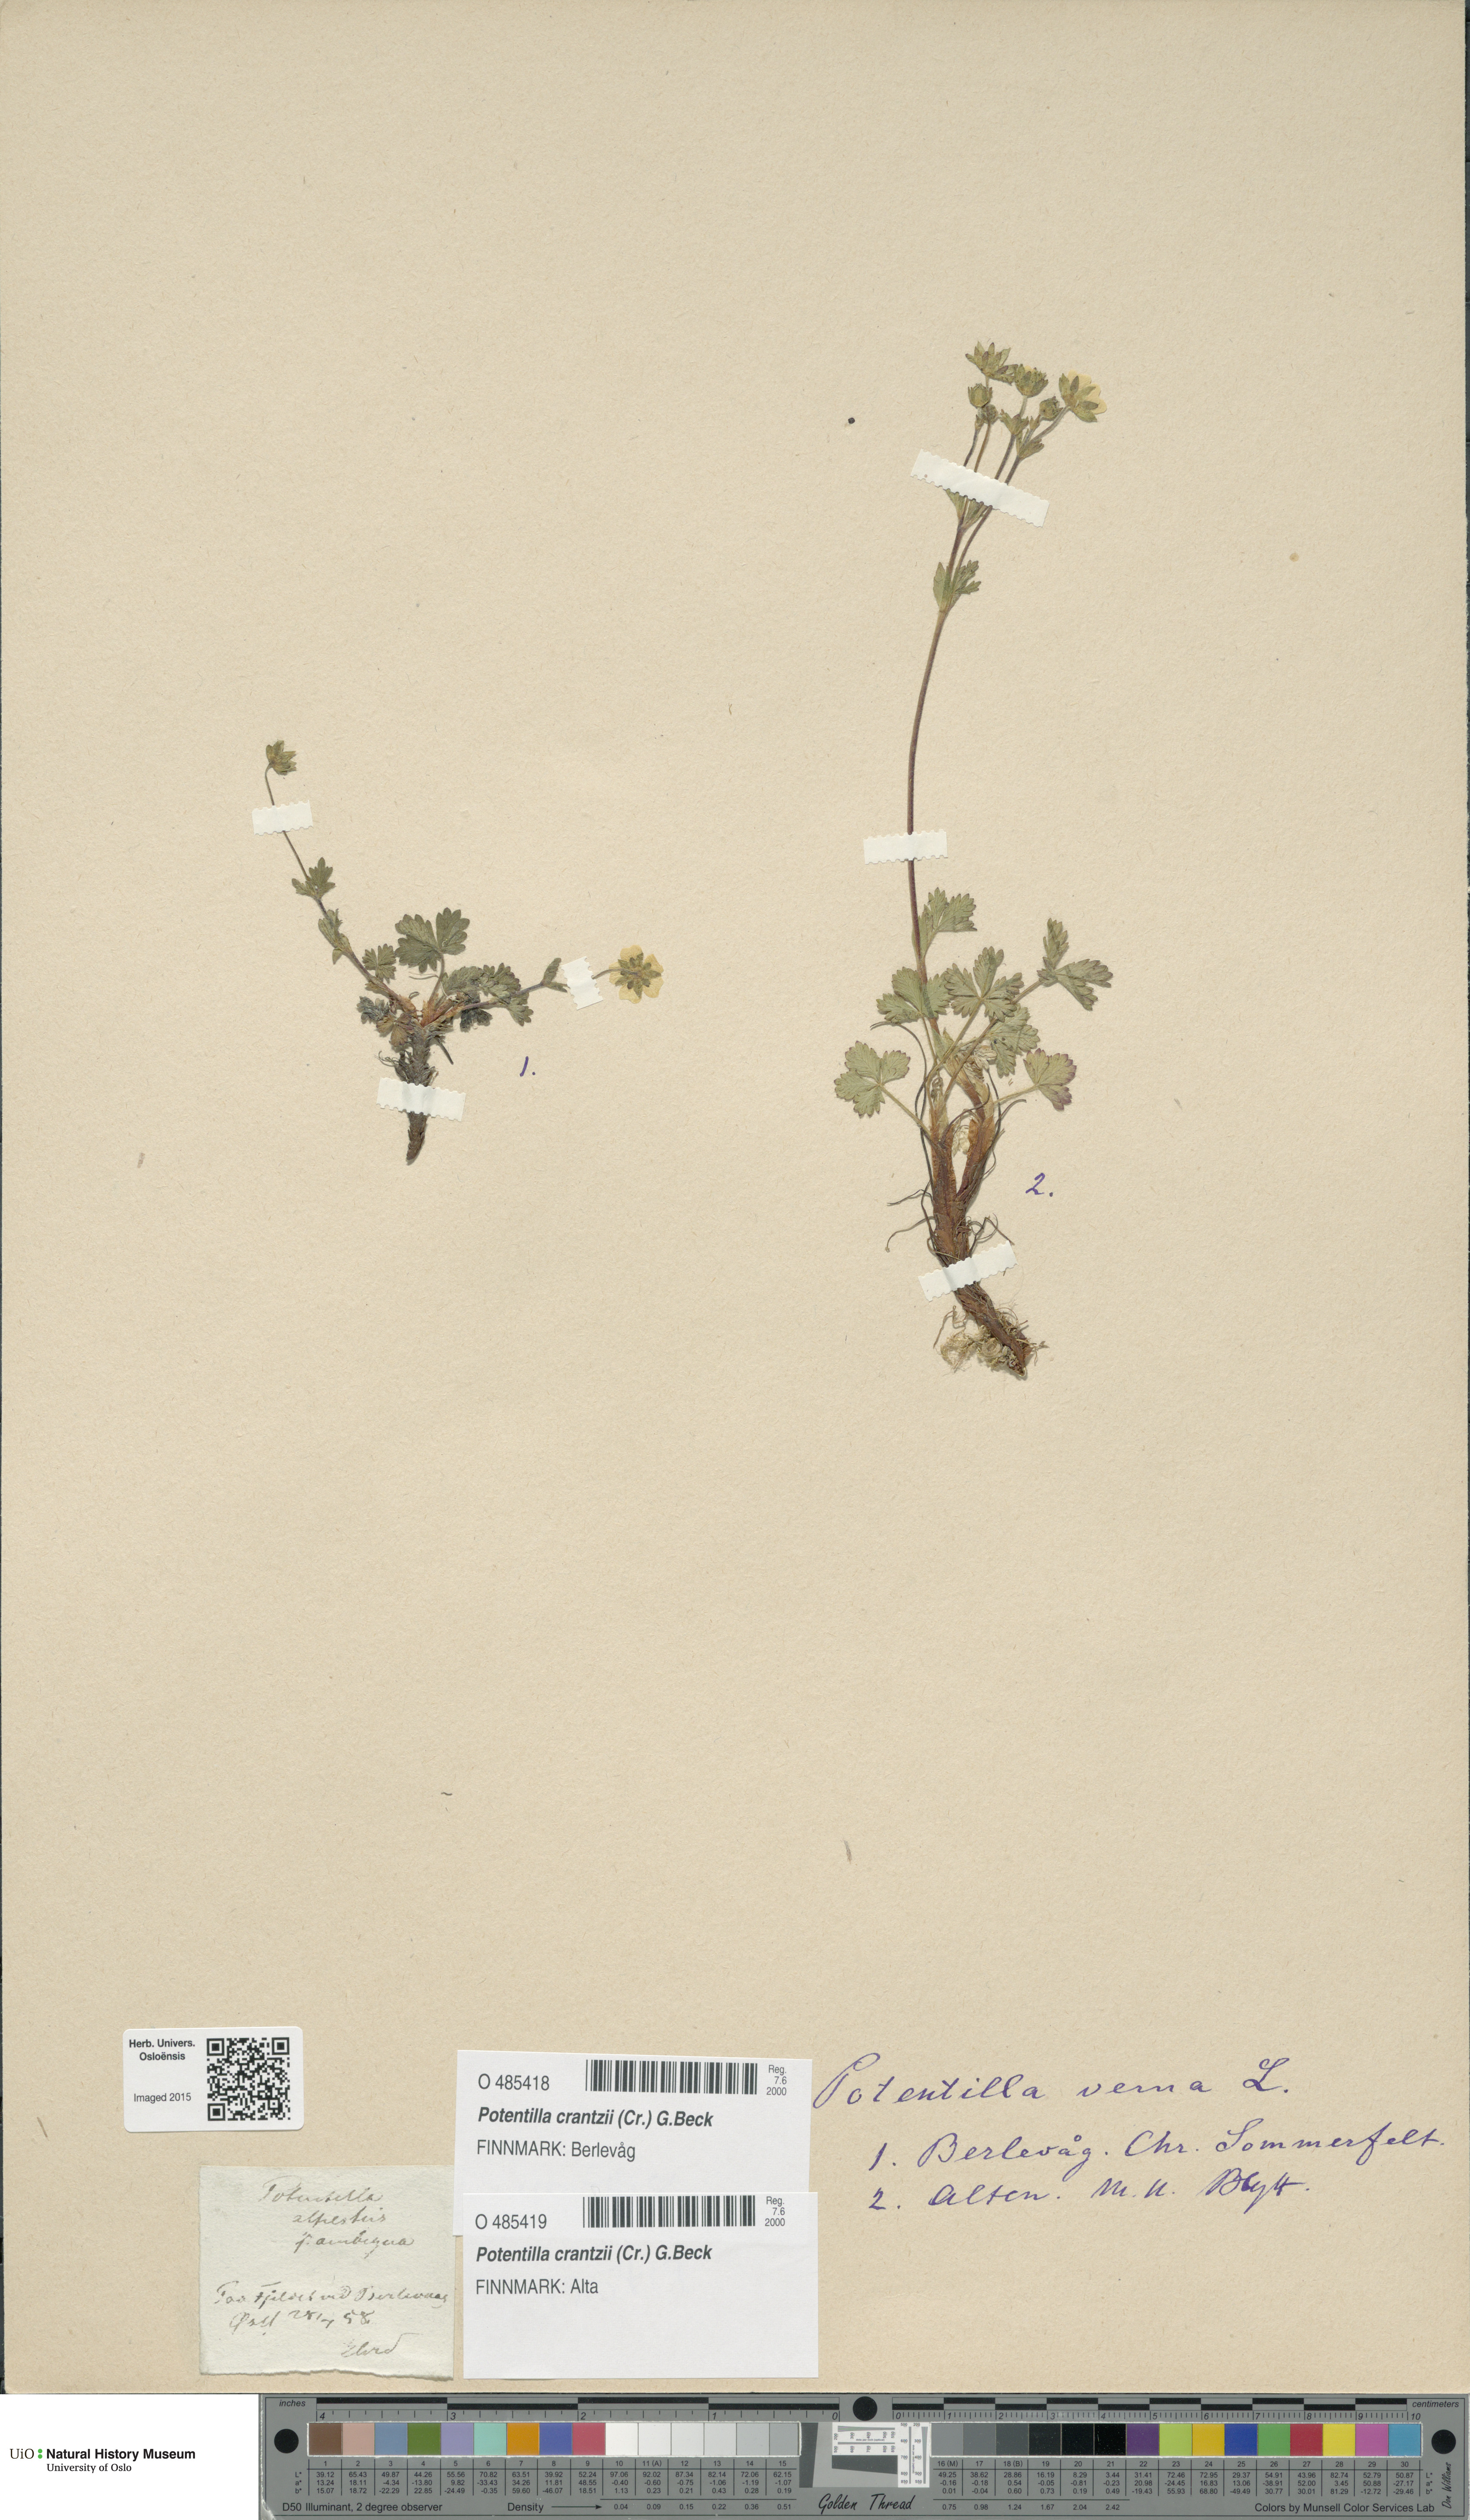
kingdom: Plantae
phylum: Tracheophyta
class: Magnoliopsida
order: Rosales
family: Rosaceae
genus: Potentilla
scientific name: Potentilla crantzii
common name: Alpine cinquefoil
